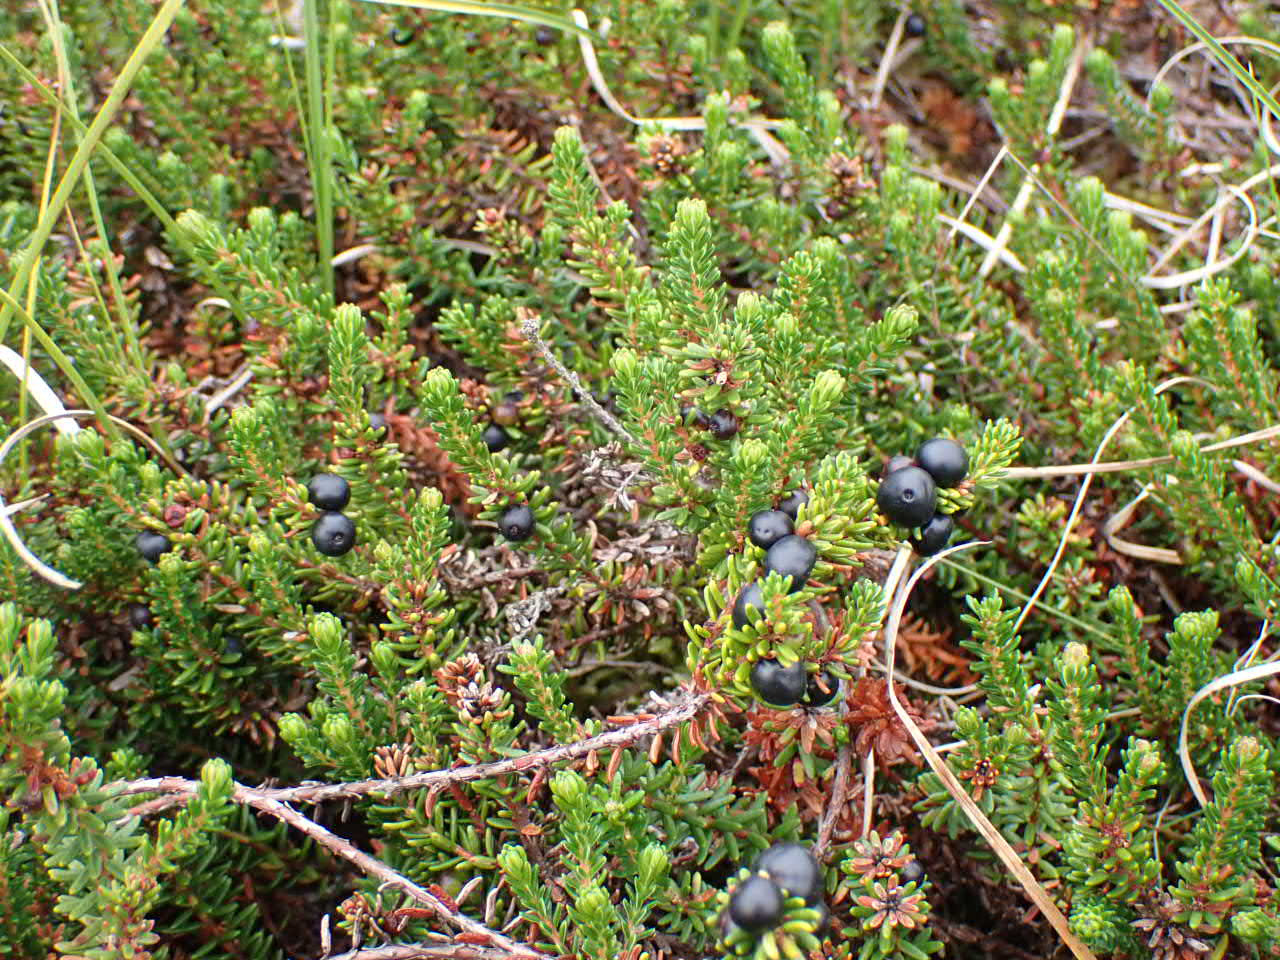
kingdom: Plantae
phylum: Tracheophyta
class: Magnoliopsida
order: Ericales
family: Ericaceae
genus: Empetrum
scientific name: Empetrum nigrum
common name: Revling
